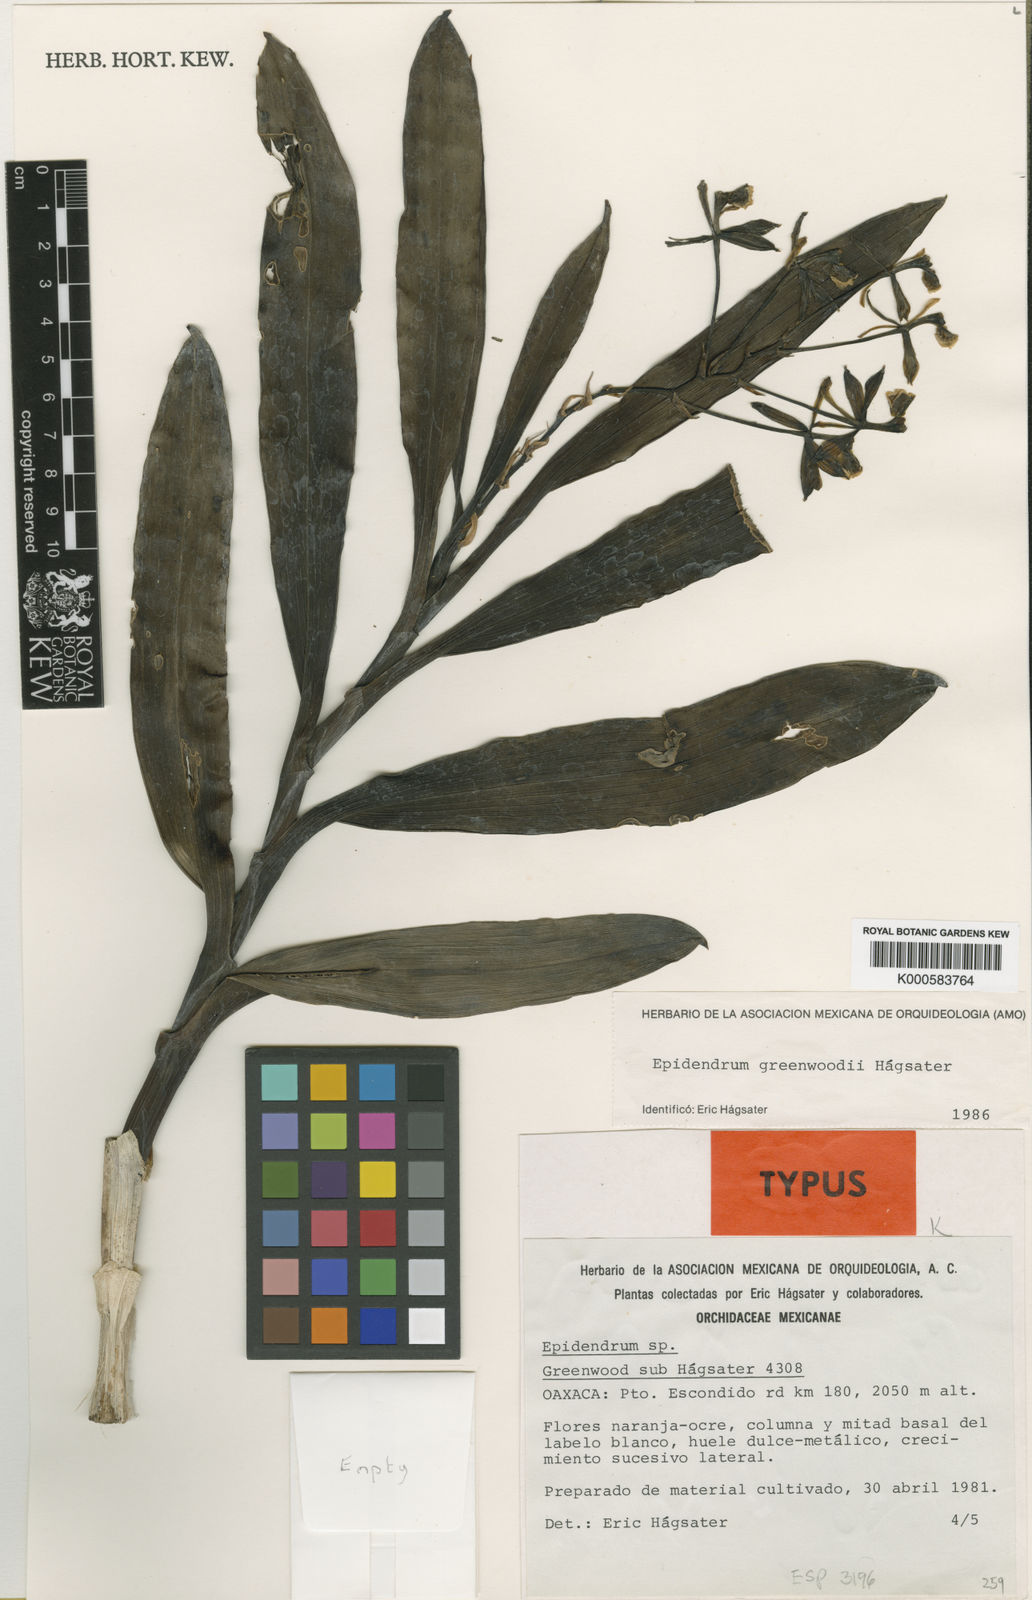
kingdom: Plantae
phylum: Tracheophyta
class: Liliopsida
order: Asparagales
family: Orchidaceae
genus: Epidendrum
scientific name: Epidendrum
